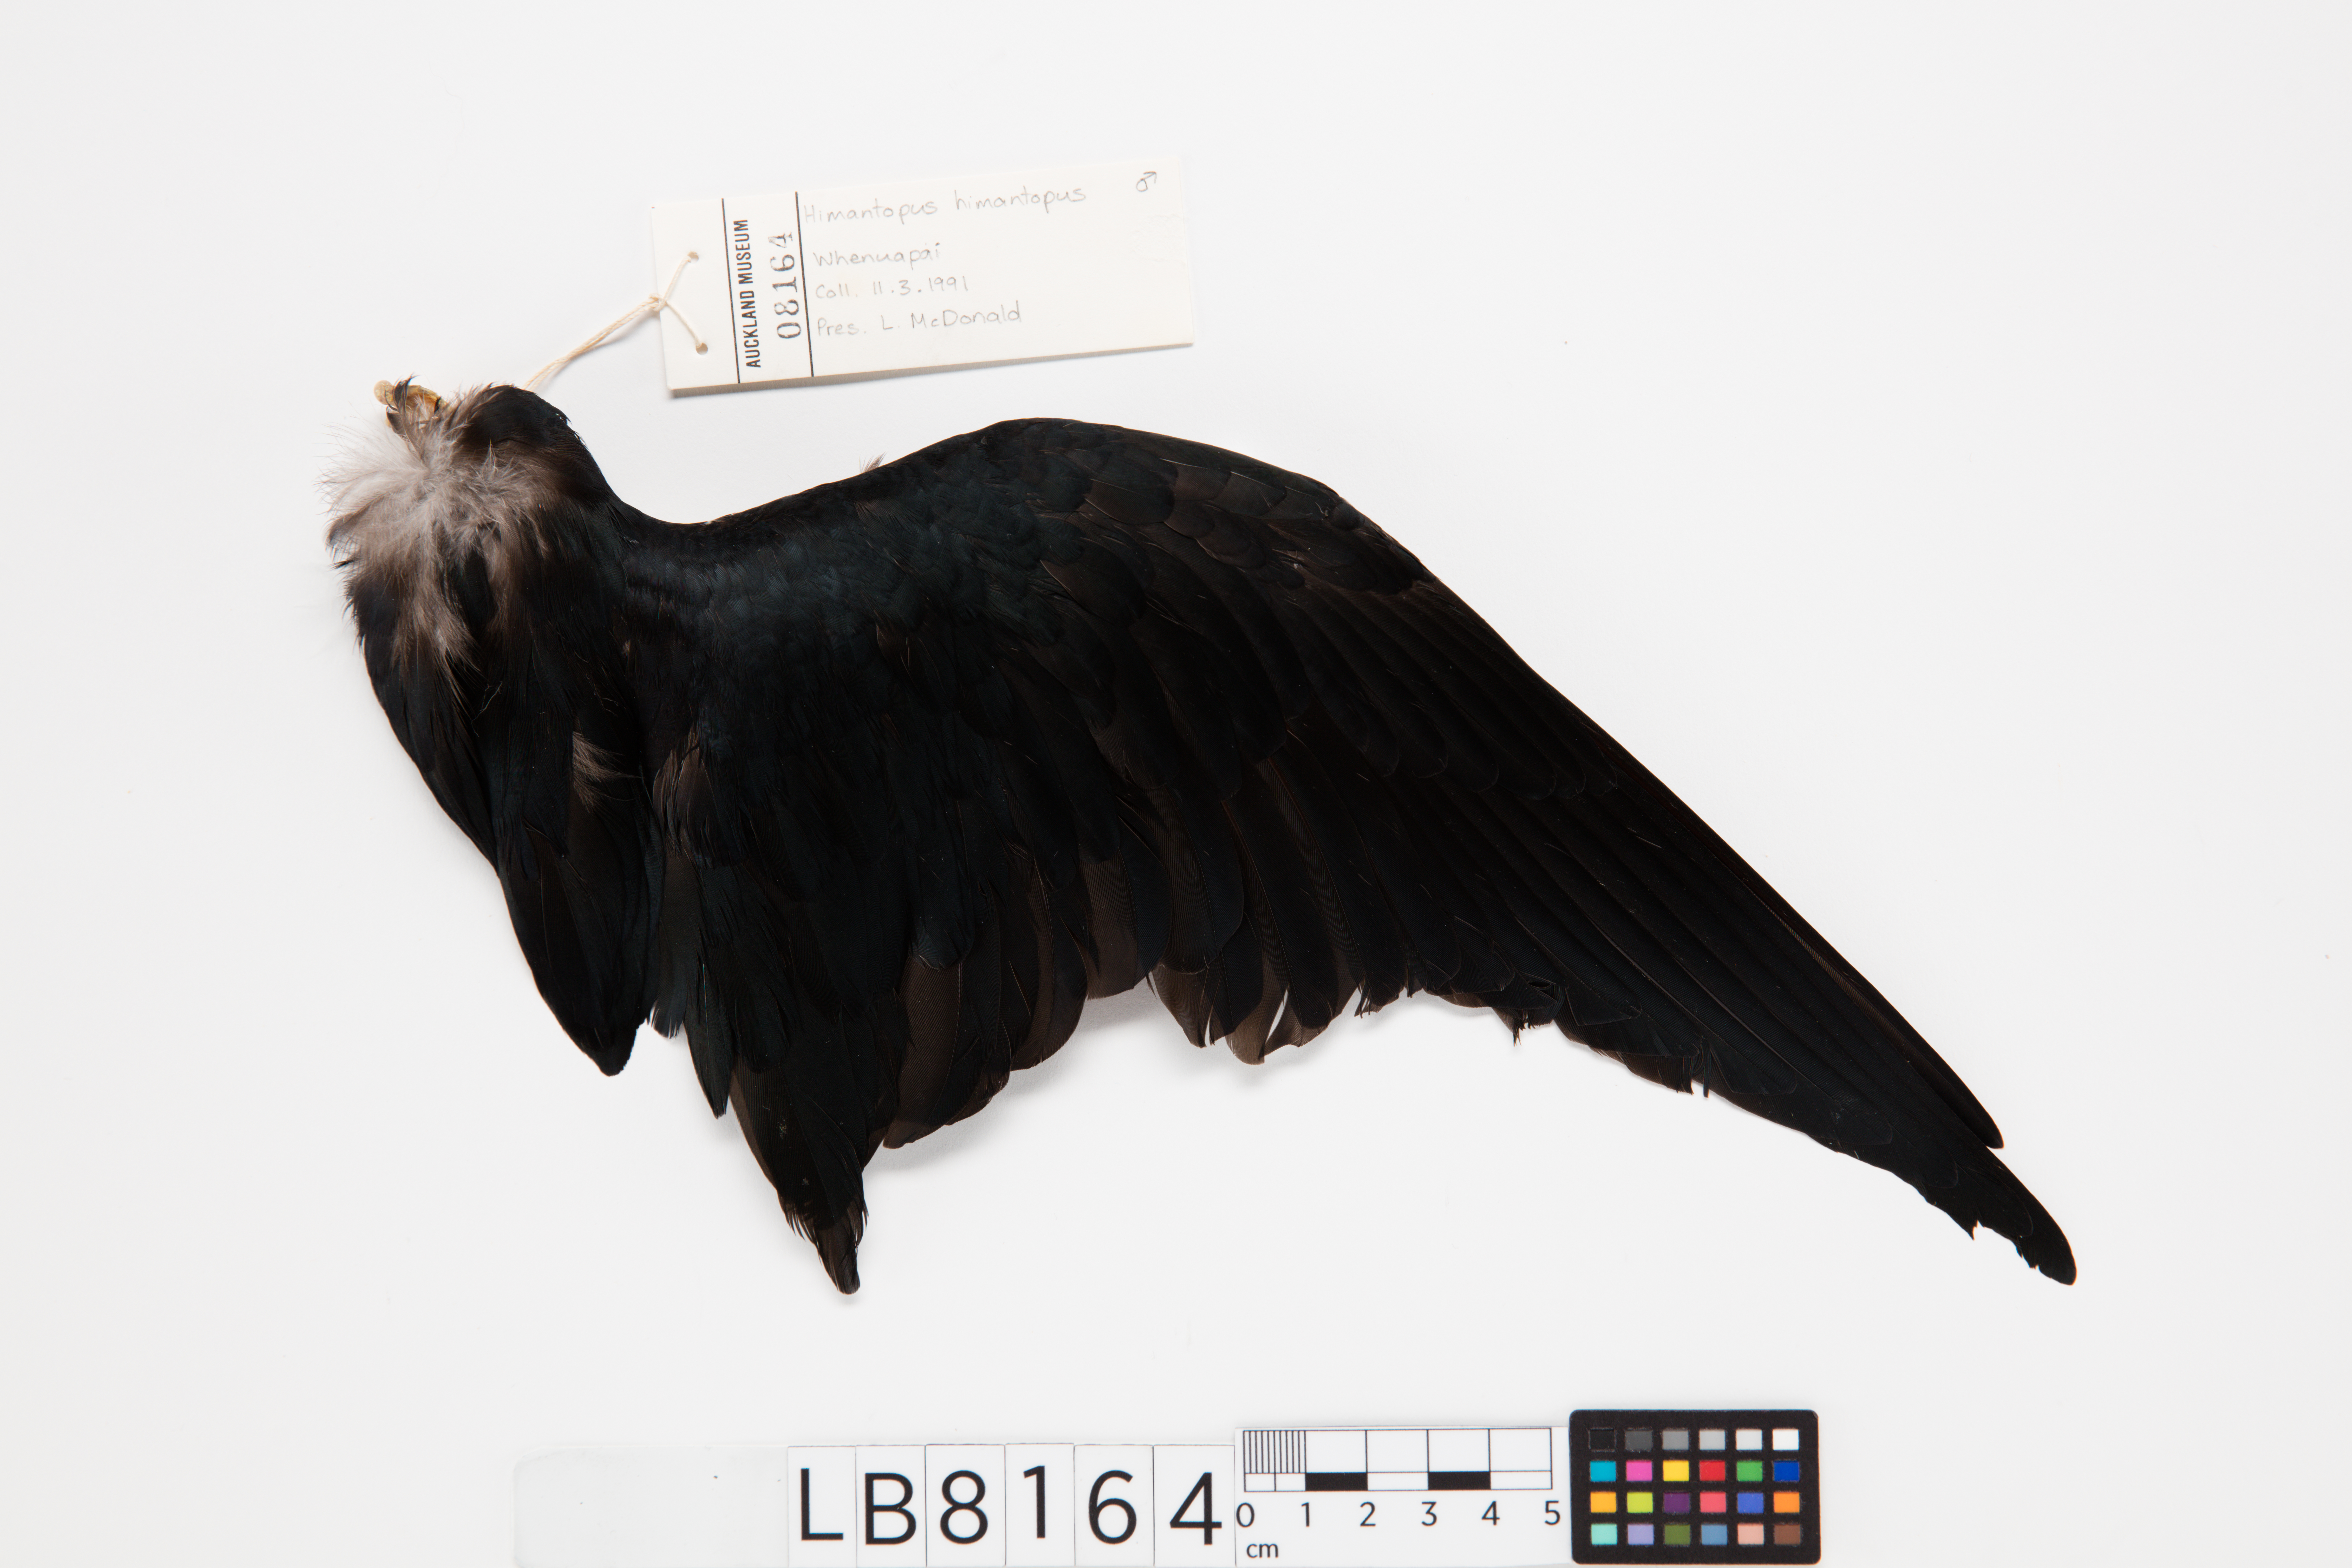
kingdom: Animalia
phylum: Chordata
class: Aves
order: Charadriiformes
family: Recurvirostridae
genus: Himantopus
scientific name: Himantopus himantopus
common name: Black-winged stilt
